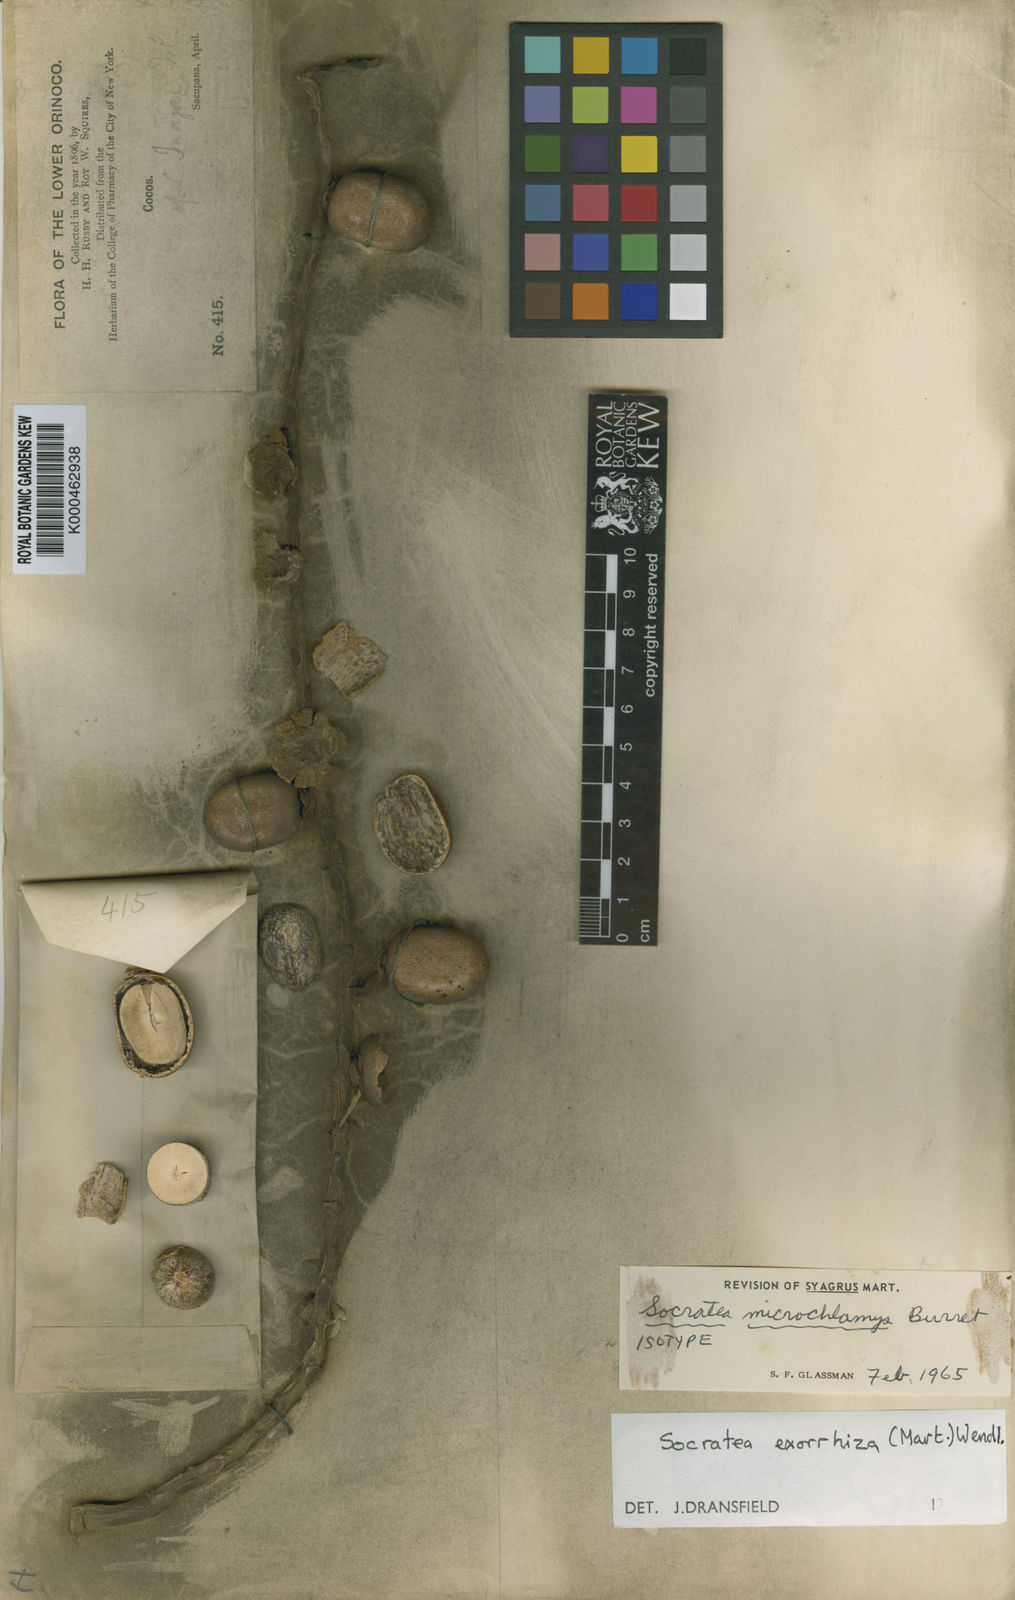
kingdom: Plantae
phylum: Tracheophyta
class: Liliopsida
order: Arecales
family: Arecaceae
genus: Socratea
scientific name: Socratea exorrhiza
